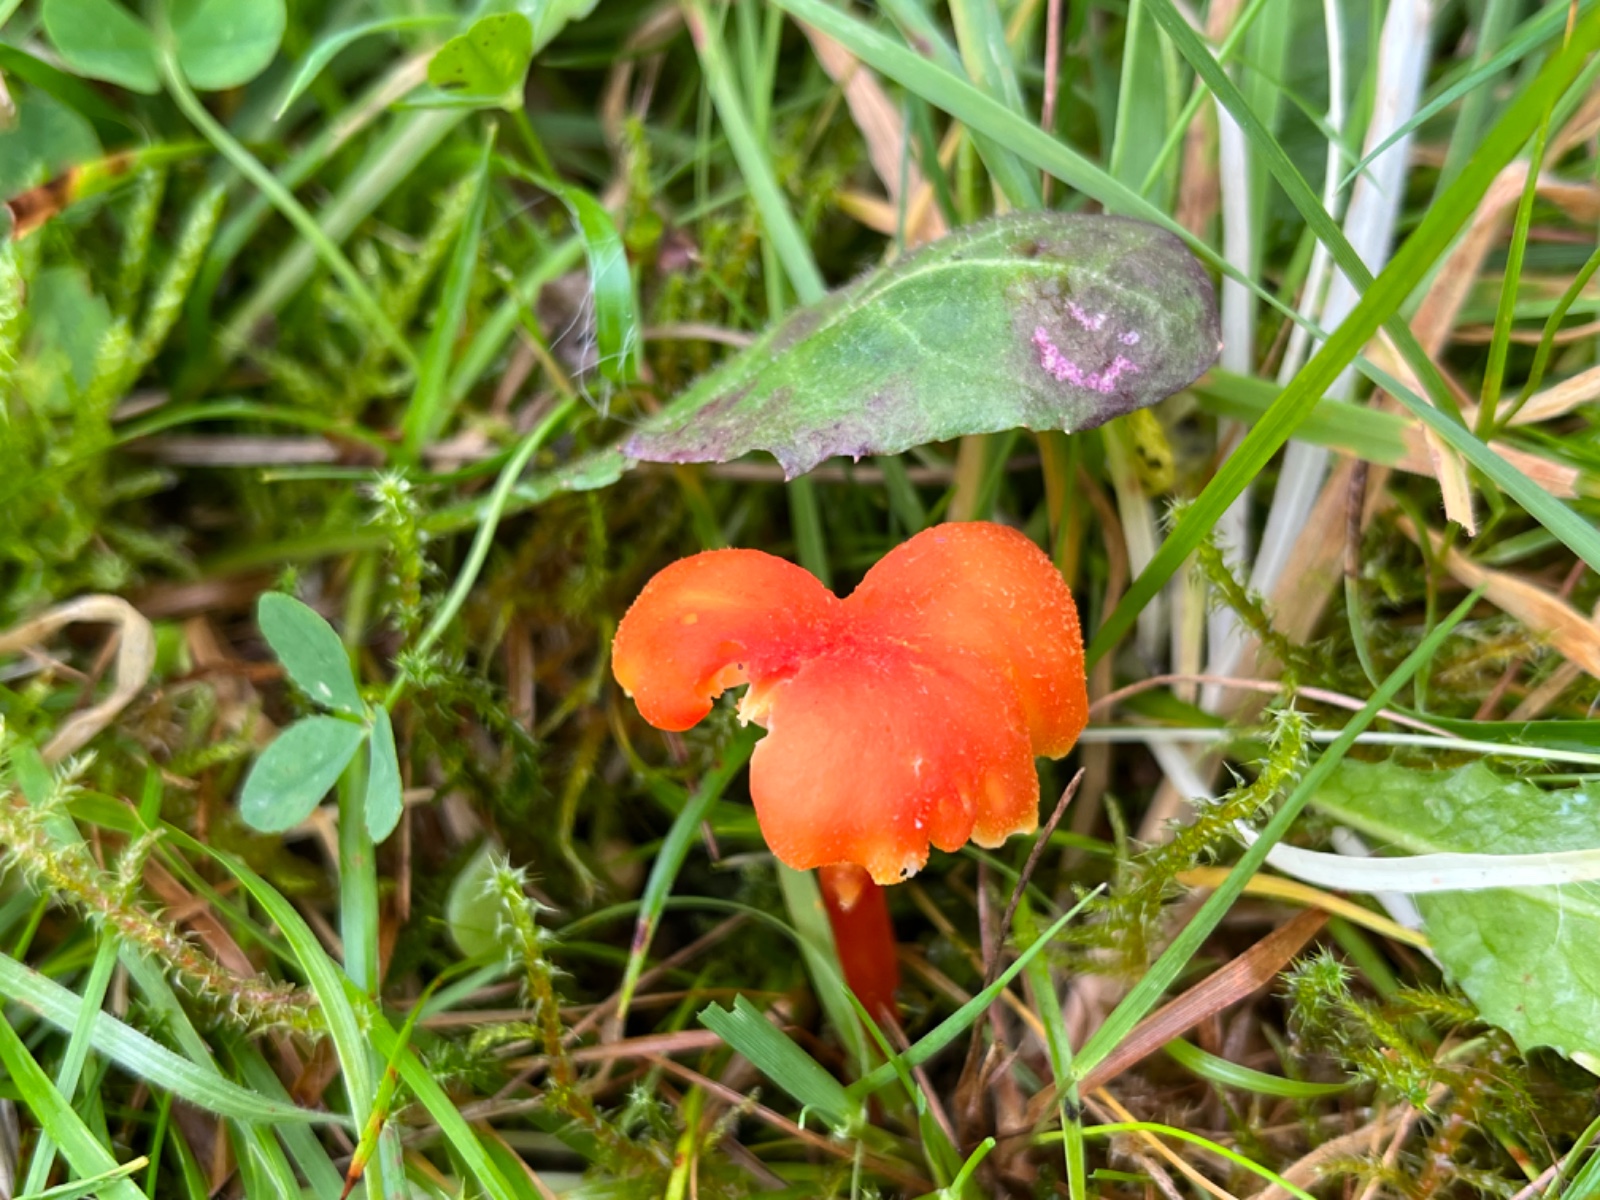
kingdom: Fungi
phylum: Basidiomycota
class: Agaricomycetes
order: Agaricales
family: Hygrophoraceae
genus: Hygrocybe
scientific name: Hygrocybe cantharellus
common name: kantarel-vokshat
